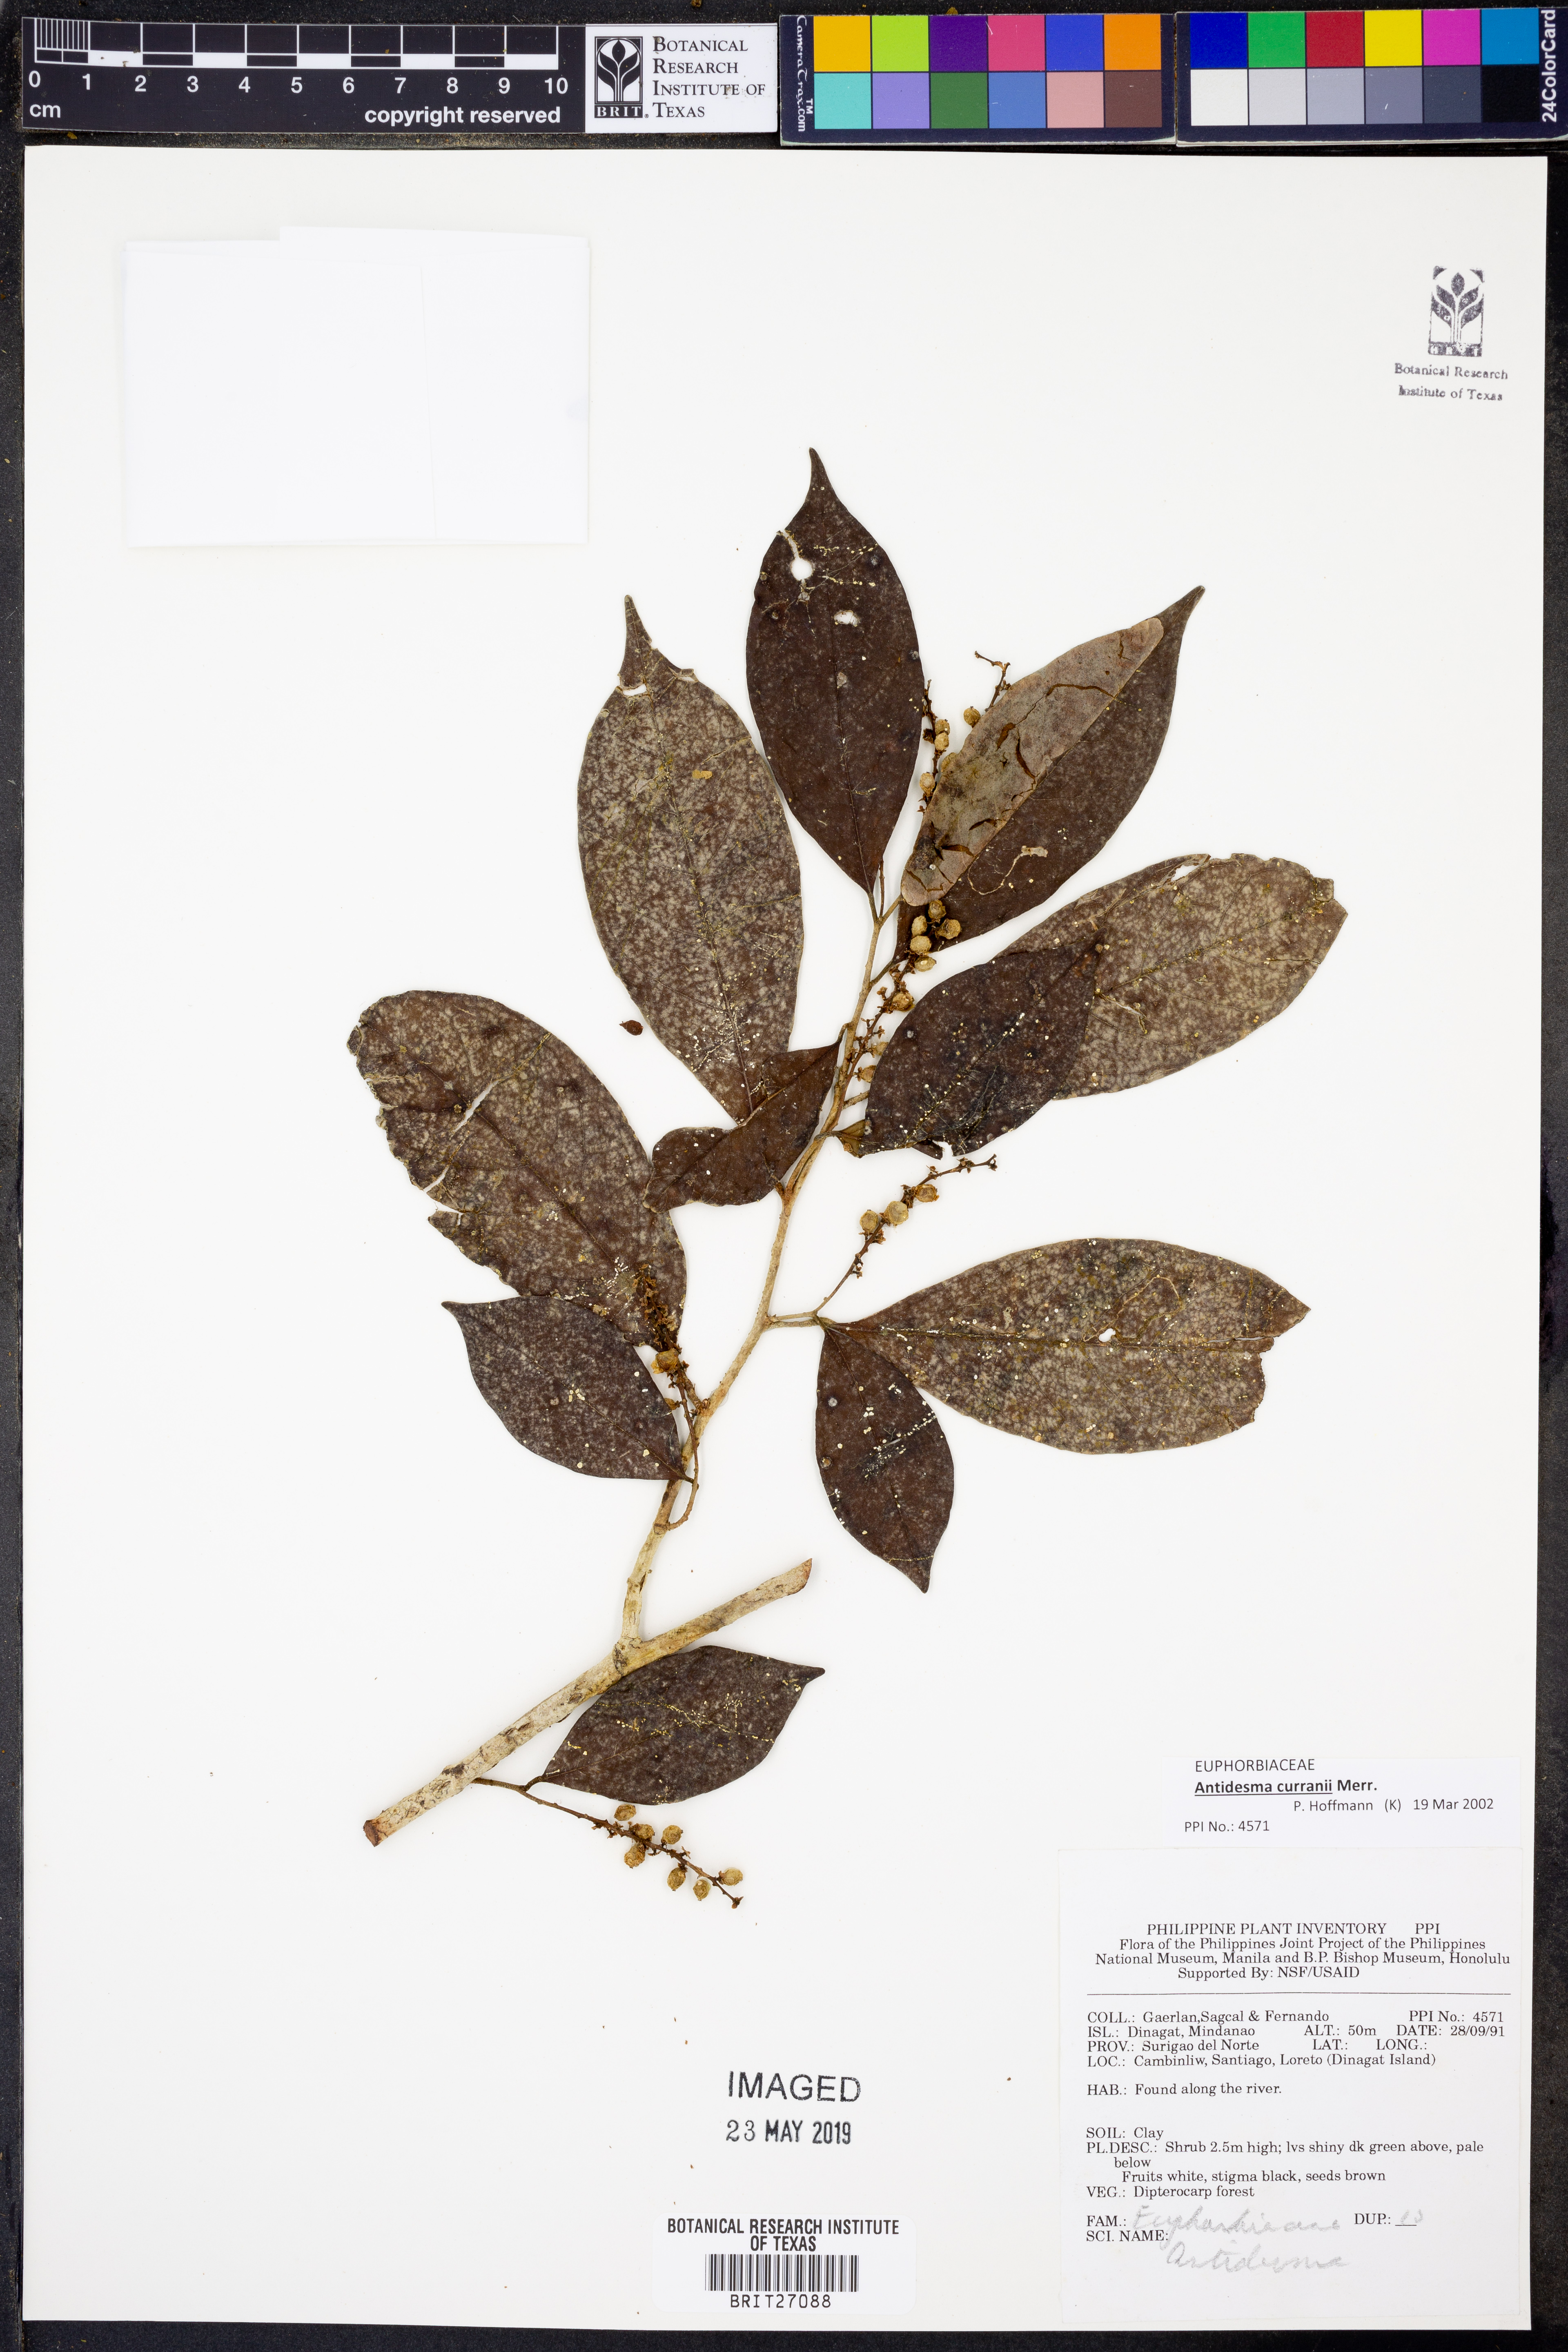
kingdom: Plantae
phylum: Tracheophyta
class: Magnoliopsida
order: Malpighiales
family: Phyllanthaceae
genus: Antidesma
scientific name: Antidesma curranii
